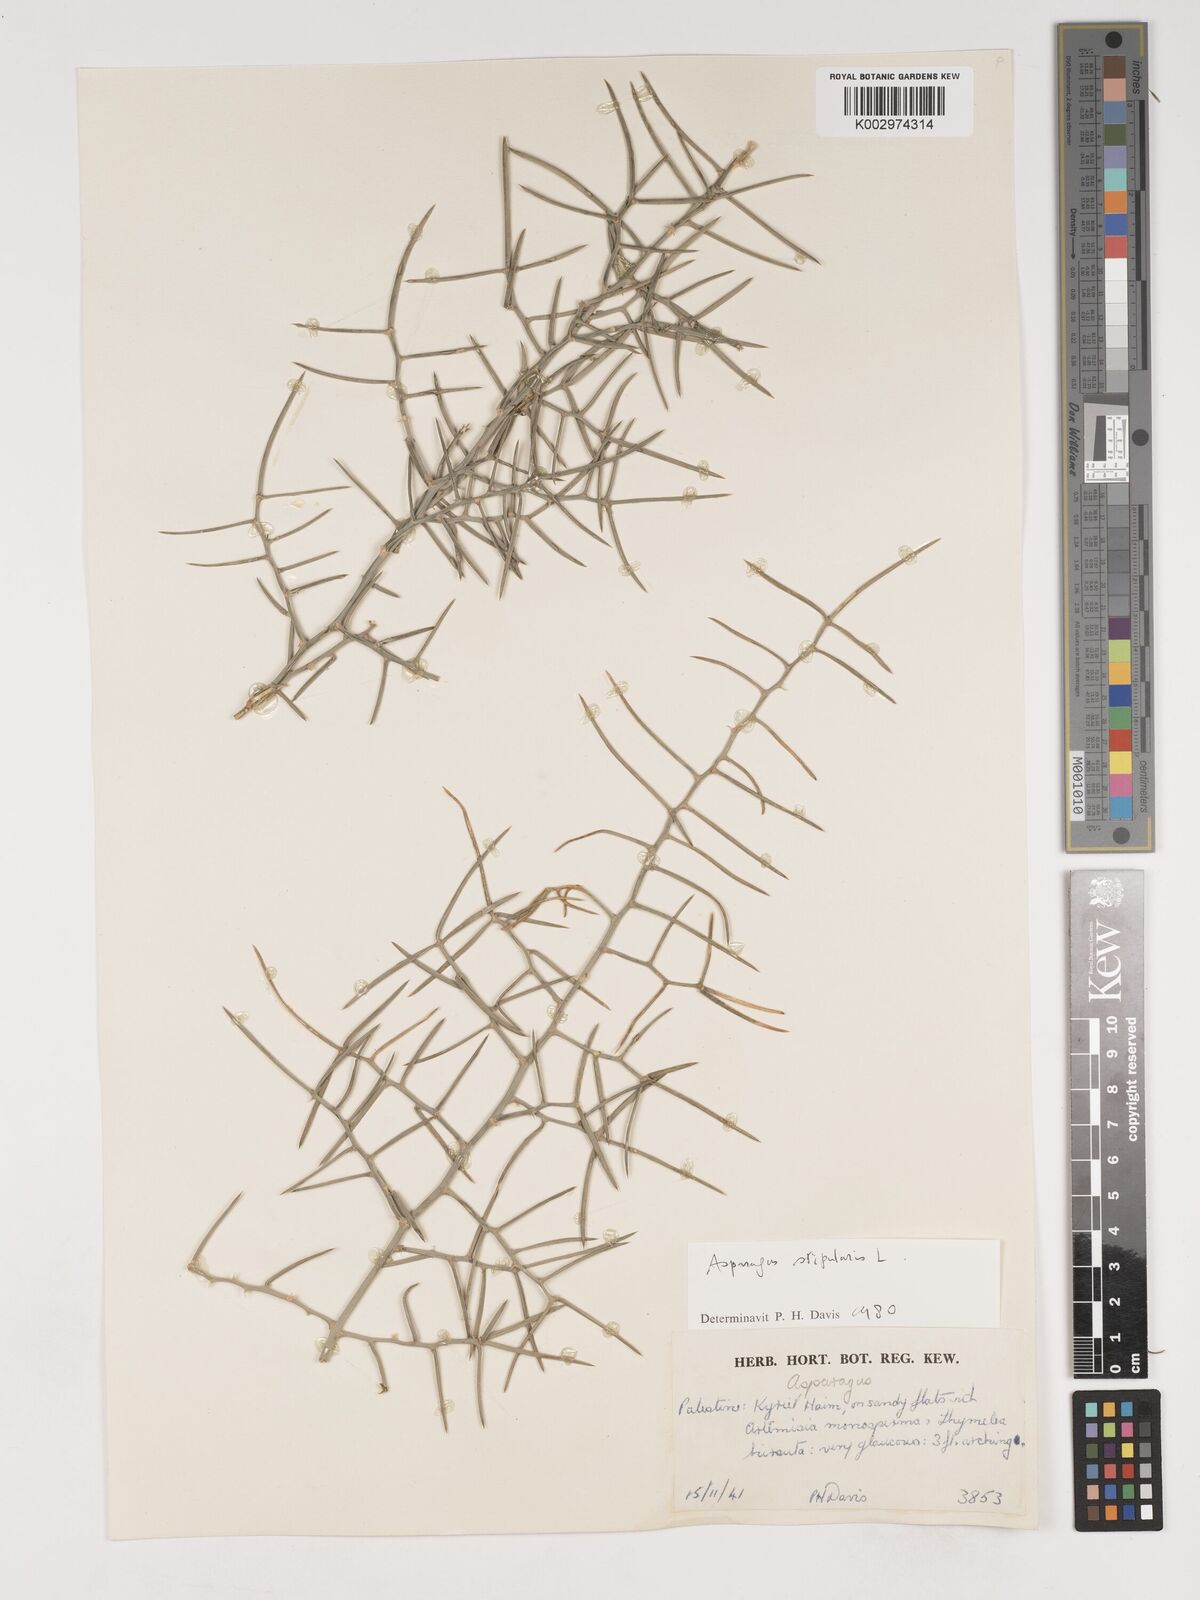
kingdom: Plantae
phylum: Tracheophyta
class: Liliopsida
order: Asparagales
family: Asparagaceae
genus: Asparagus
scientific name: Asparagus horridus
